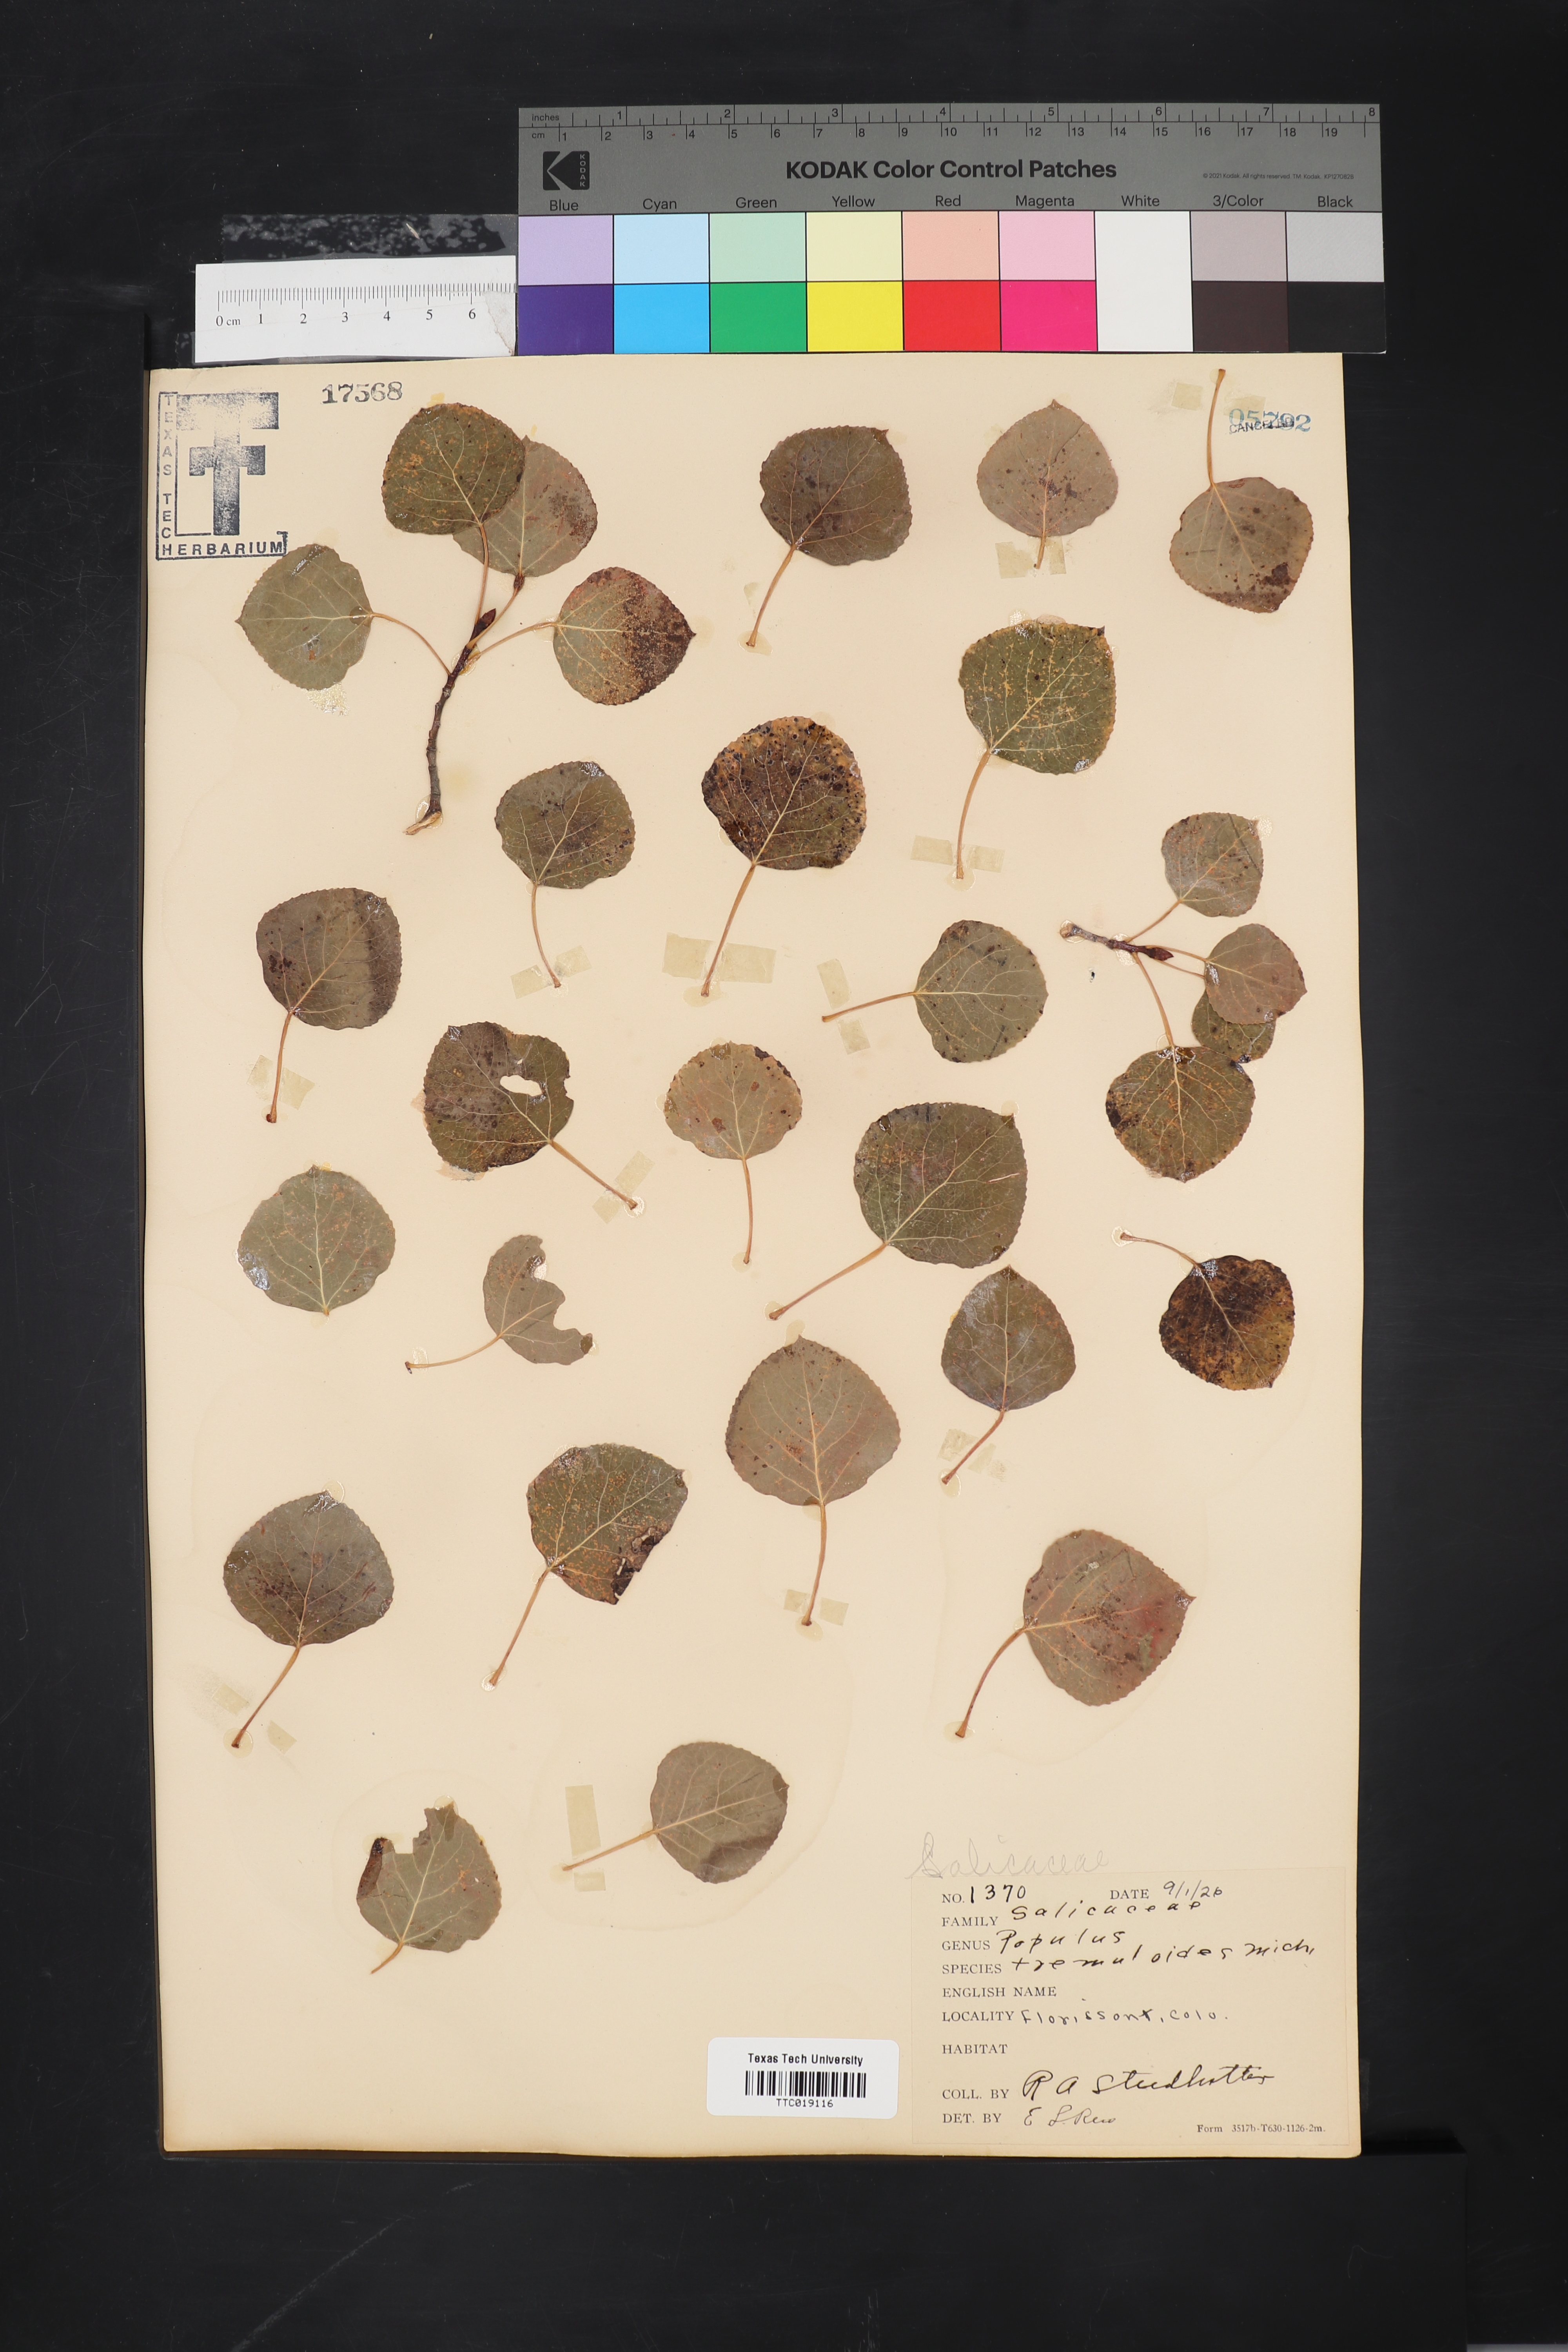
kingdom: Plantae
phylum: Tracheophyta
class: Magnoliopsida
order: Malpighiales
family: Salicaceae
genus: Populus
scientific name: Populus tremuloides
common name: Quaking aspen
